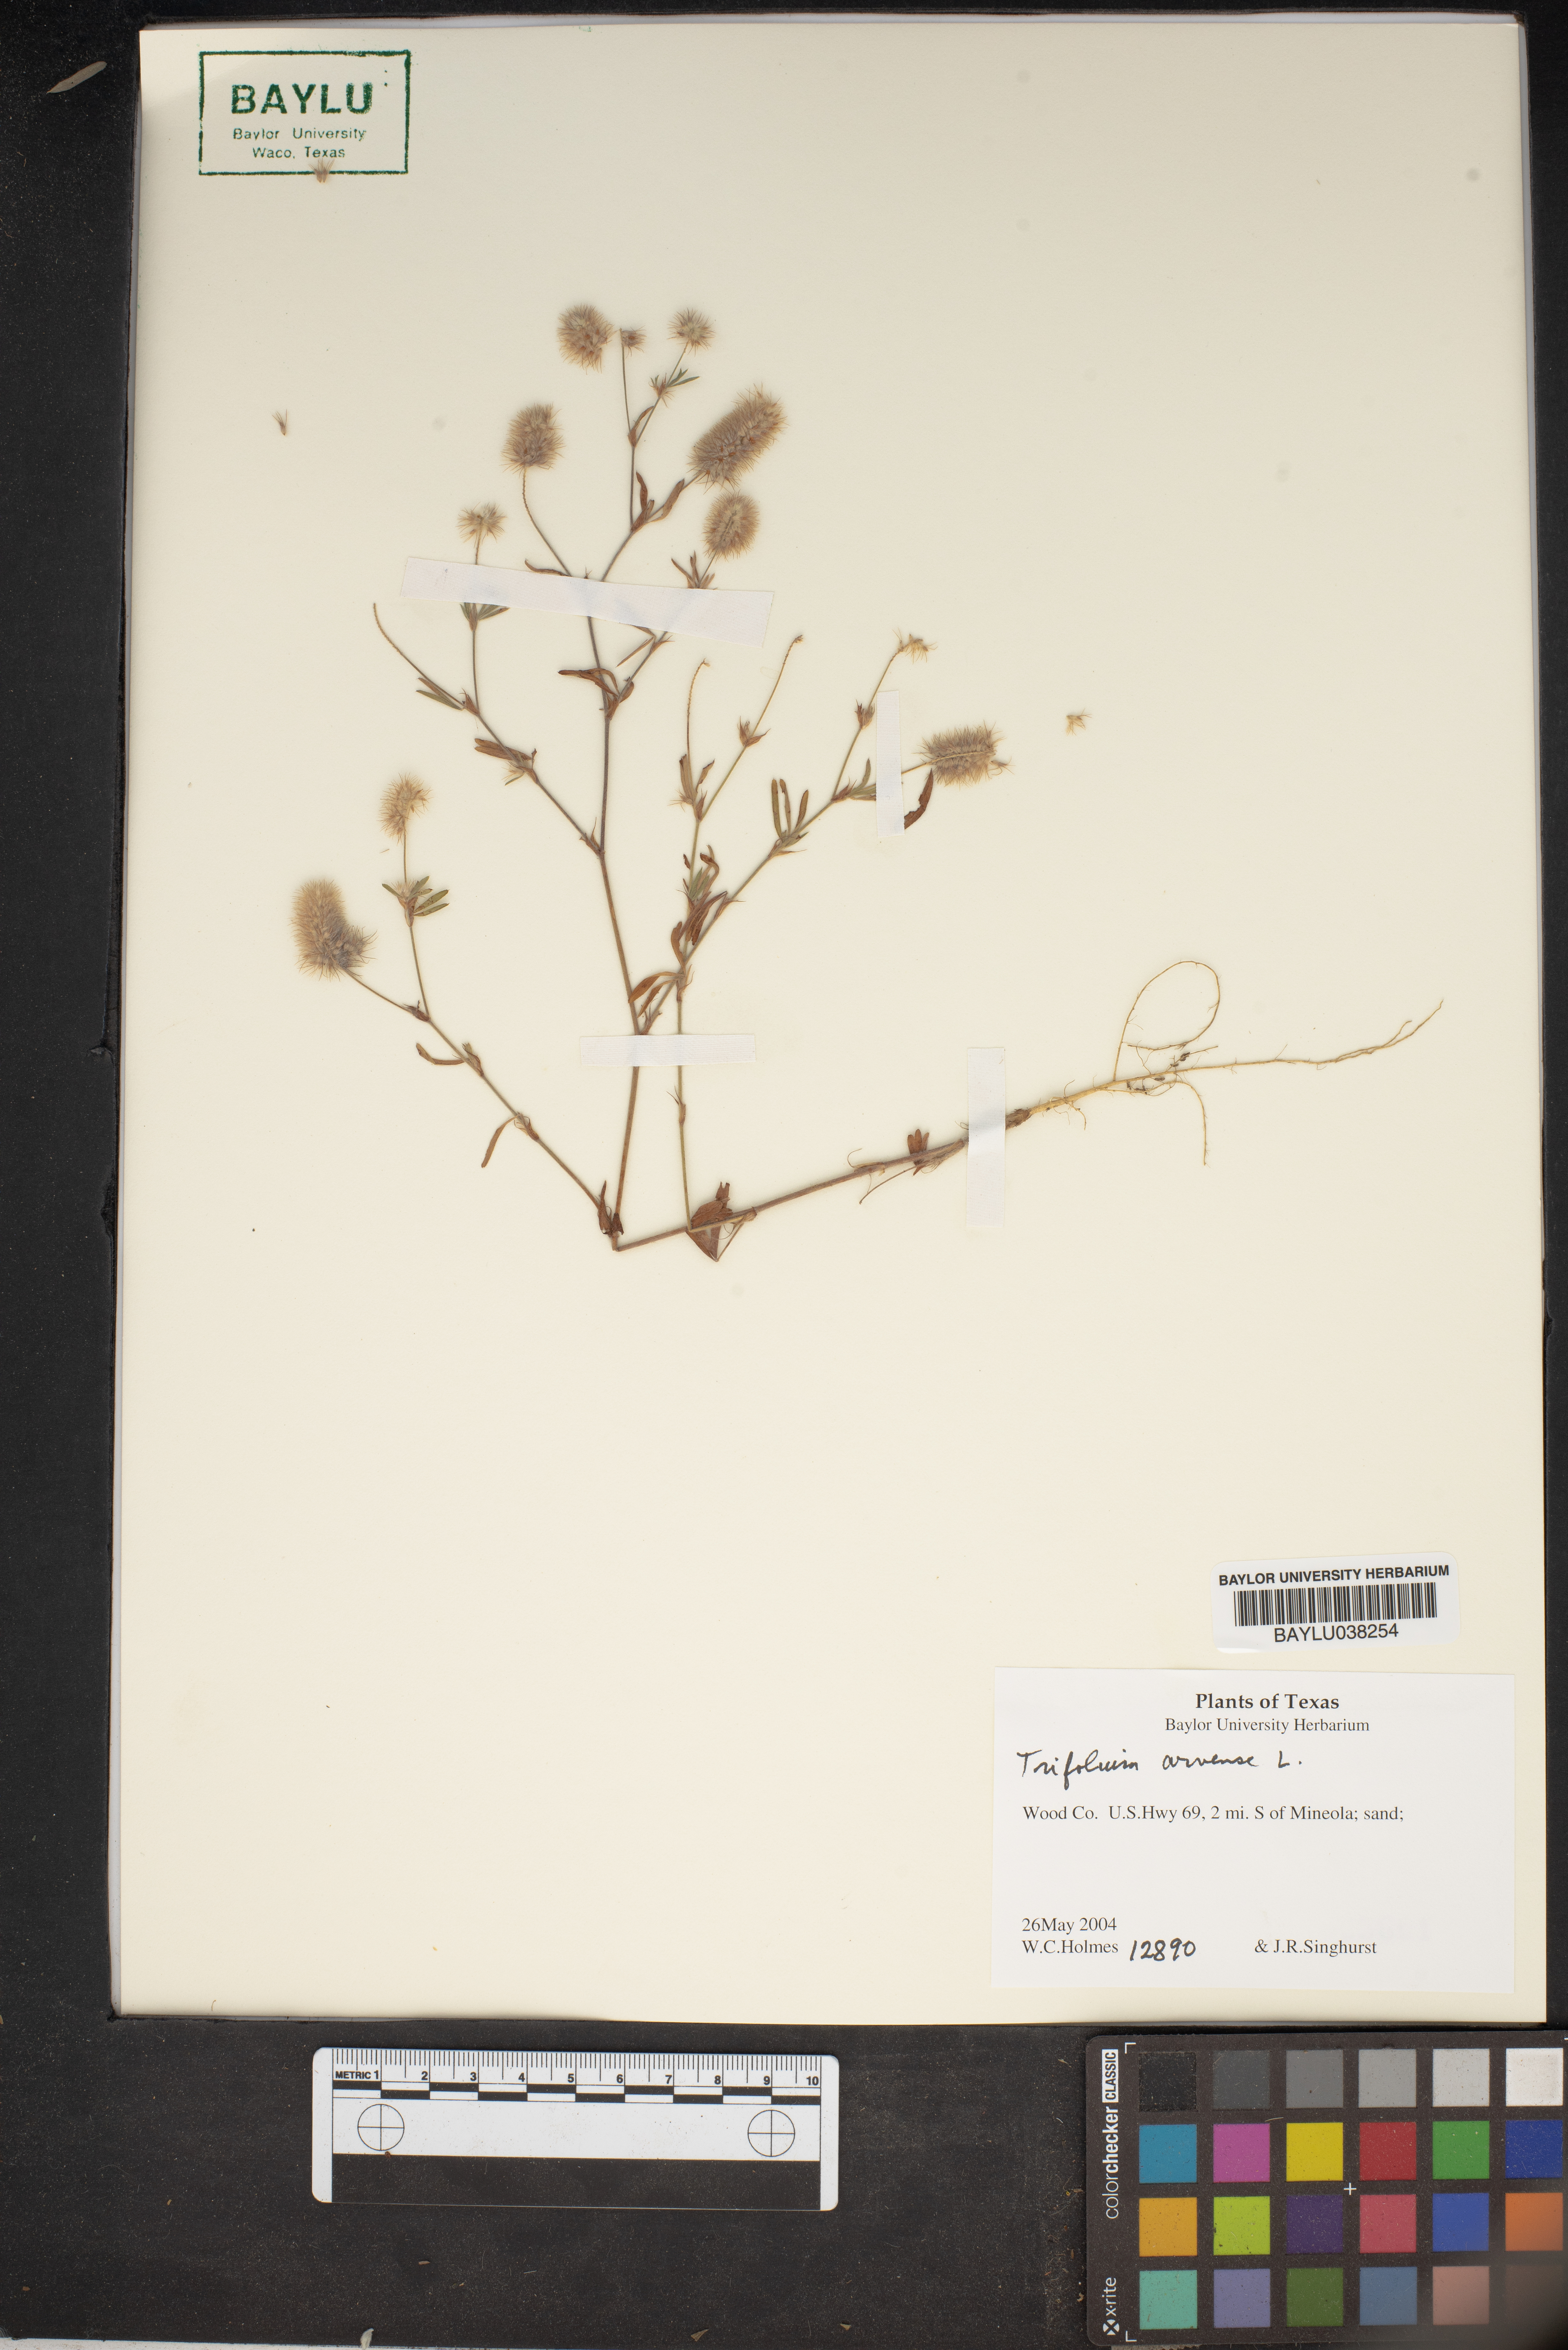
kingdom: Plantae
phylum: Tracheophyta
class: Magnoliopsida
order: Fabales
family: Fabaceae
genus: Trifolium
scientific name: Trifolium arvense
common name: Hare's-foot clover
